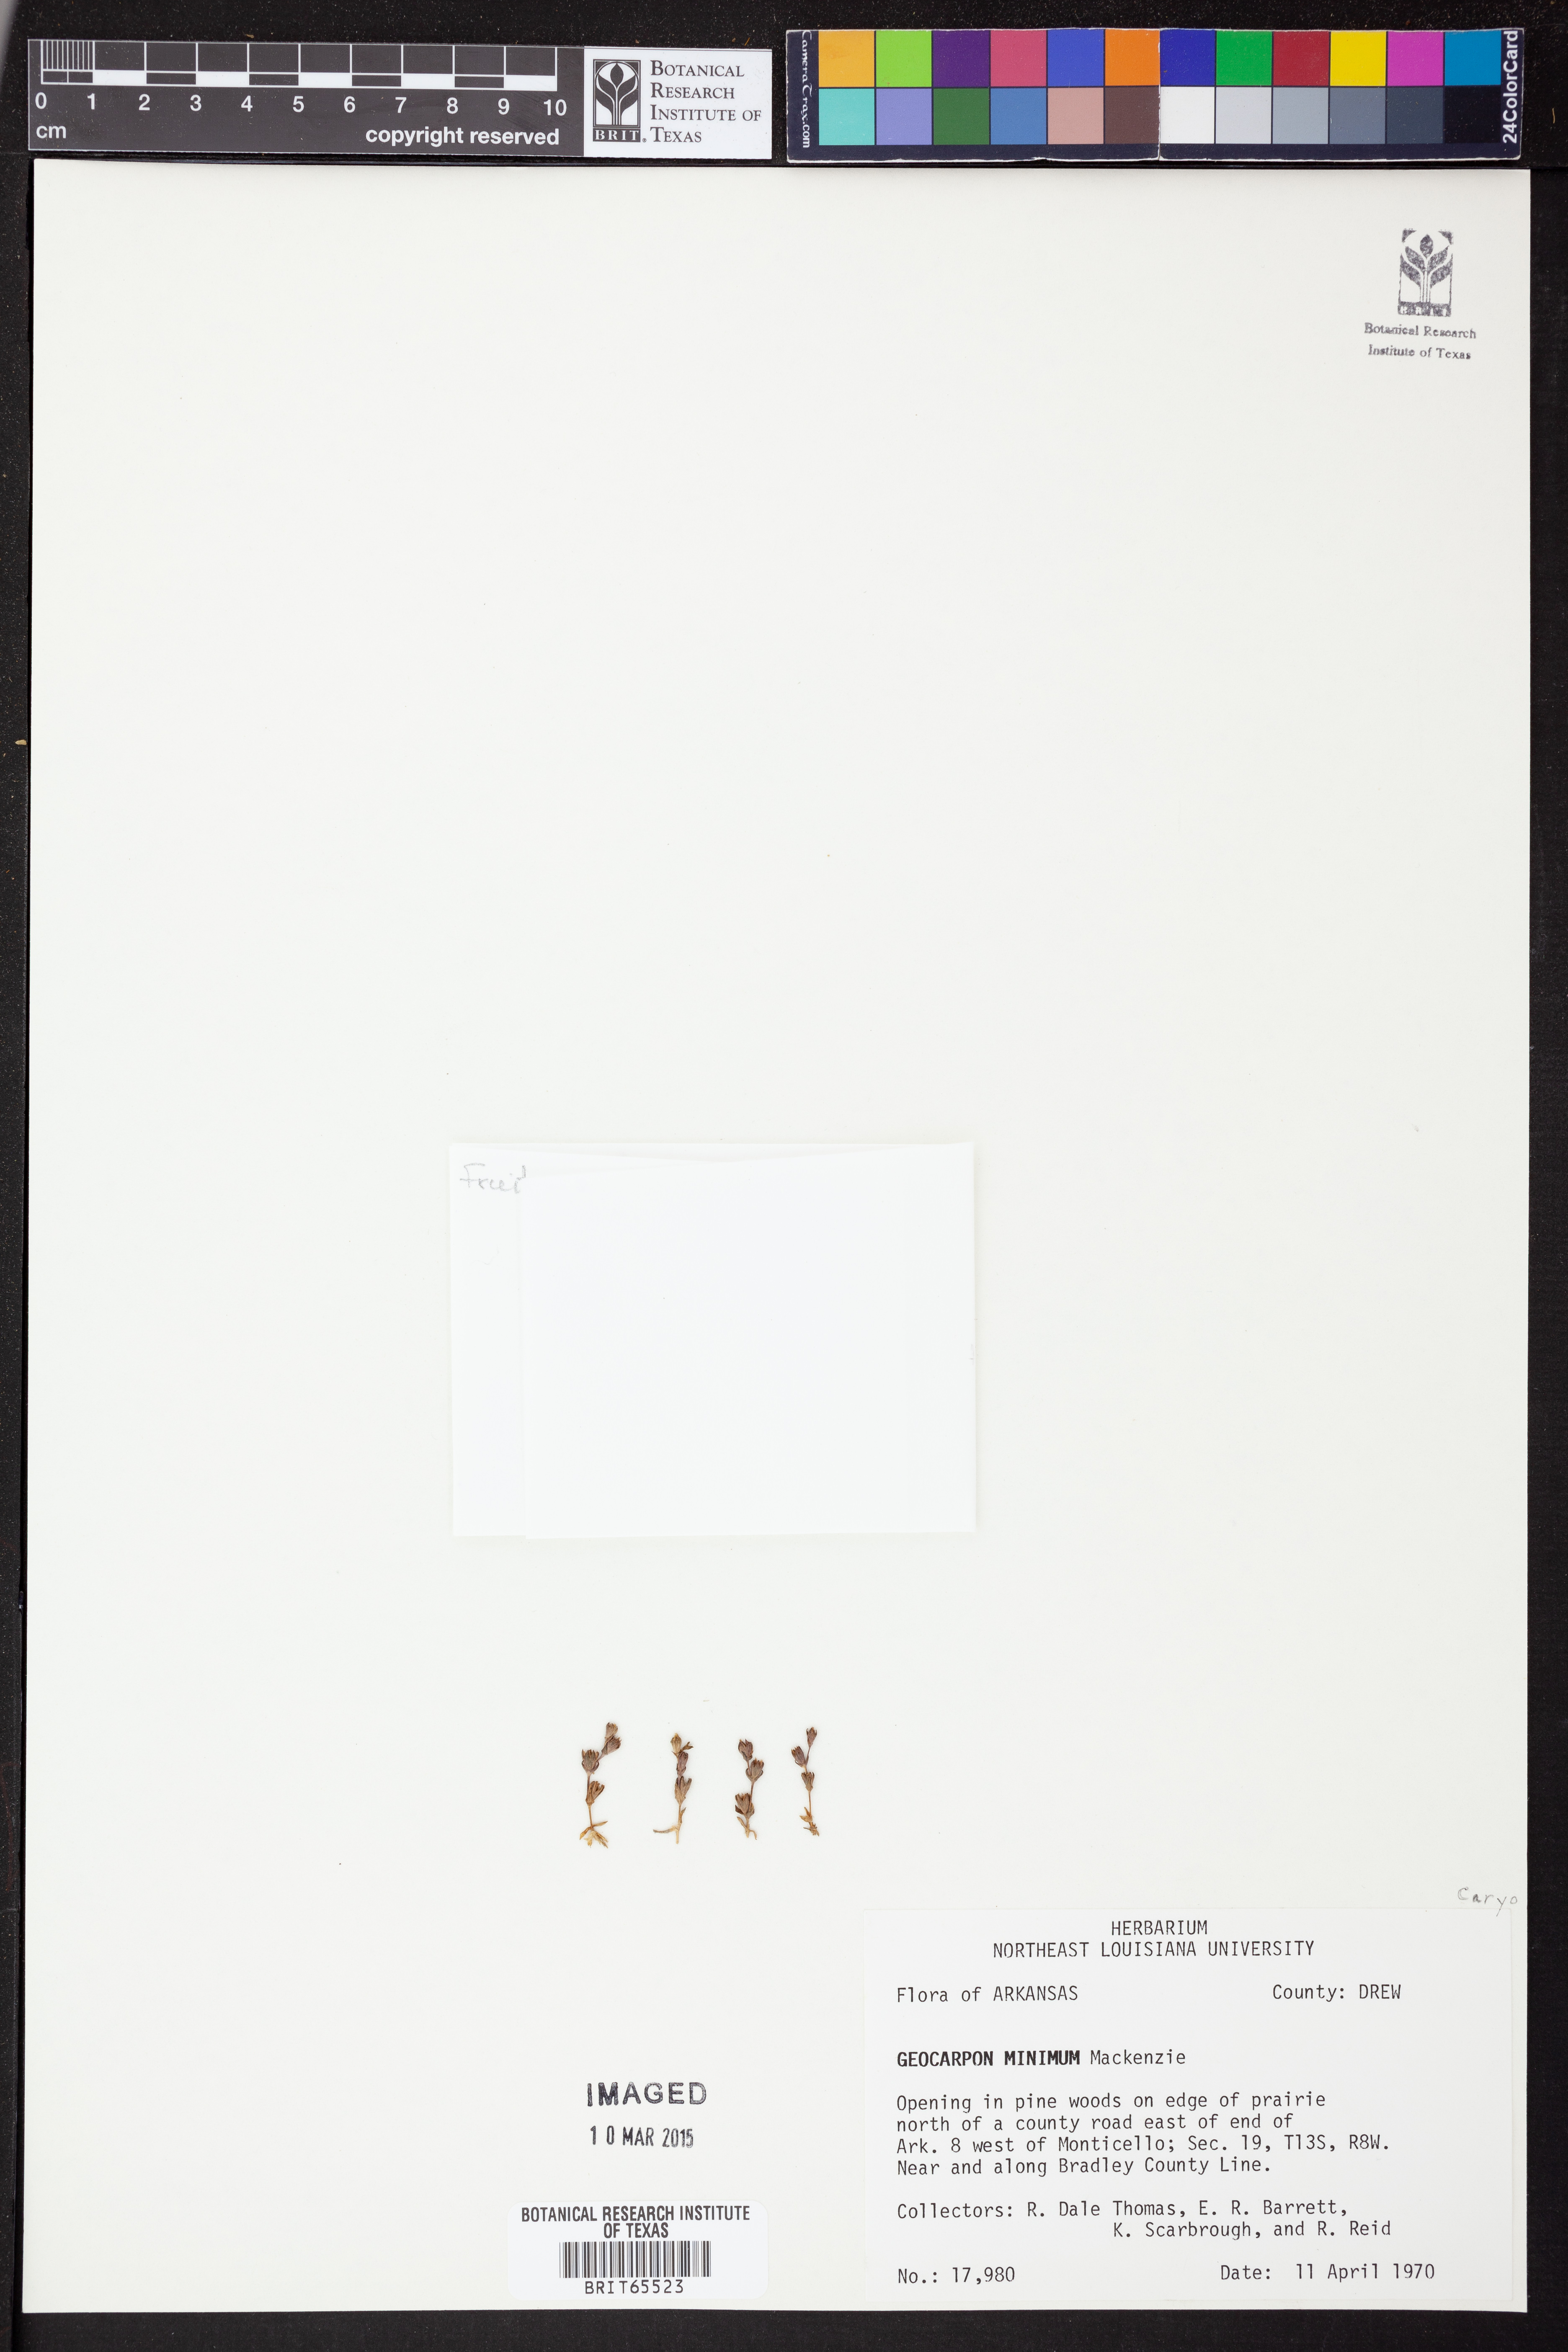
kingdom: Plantae
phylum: Tracheophyta
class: Magnoliopsida
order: Caryophyllales
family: Caryophyllaceae
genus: Geocarpon
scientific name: Geocarpon
